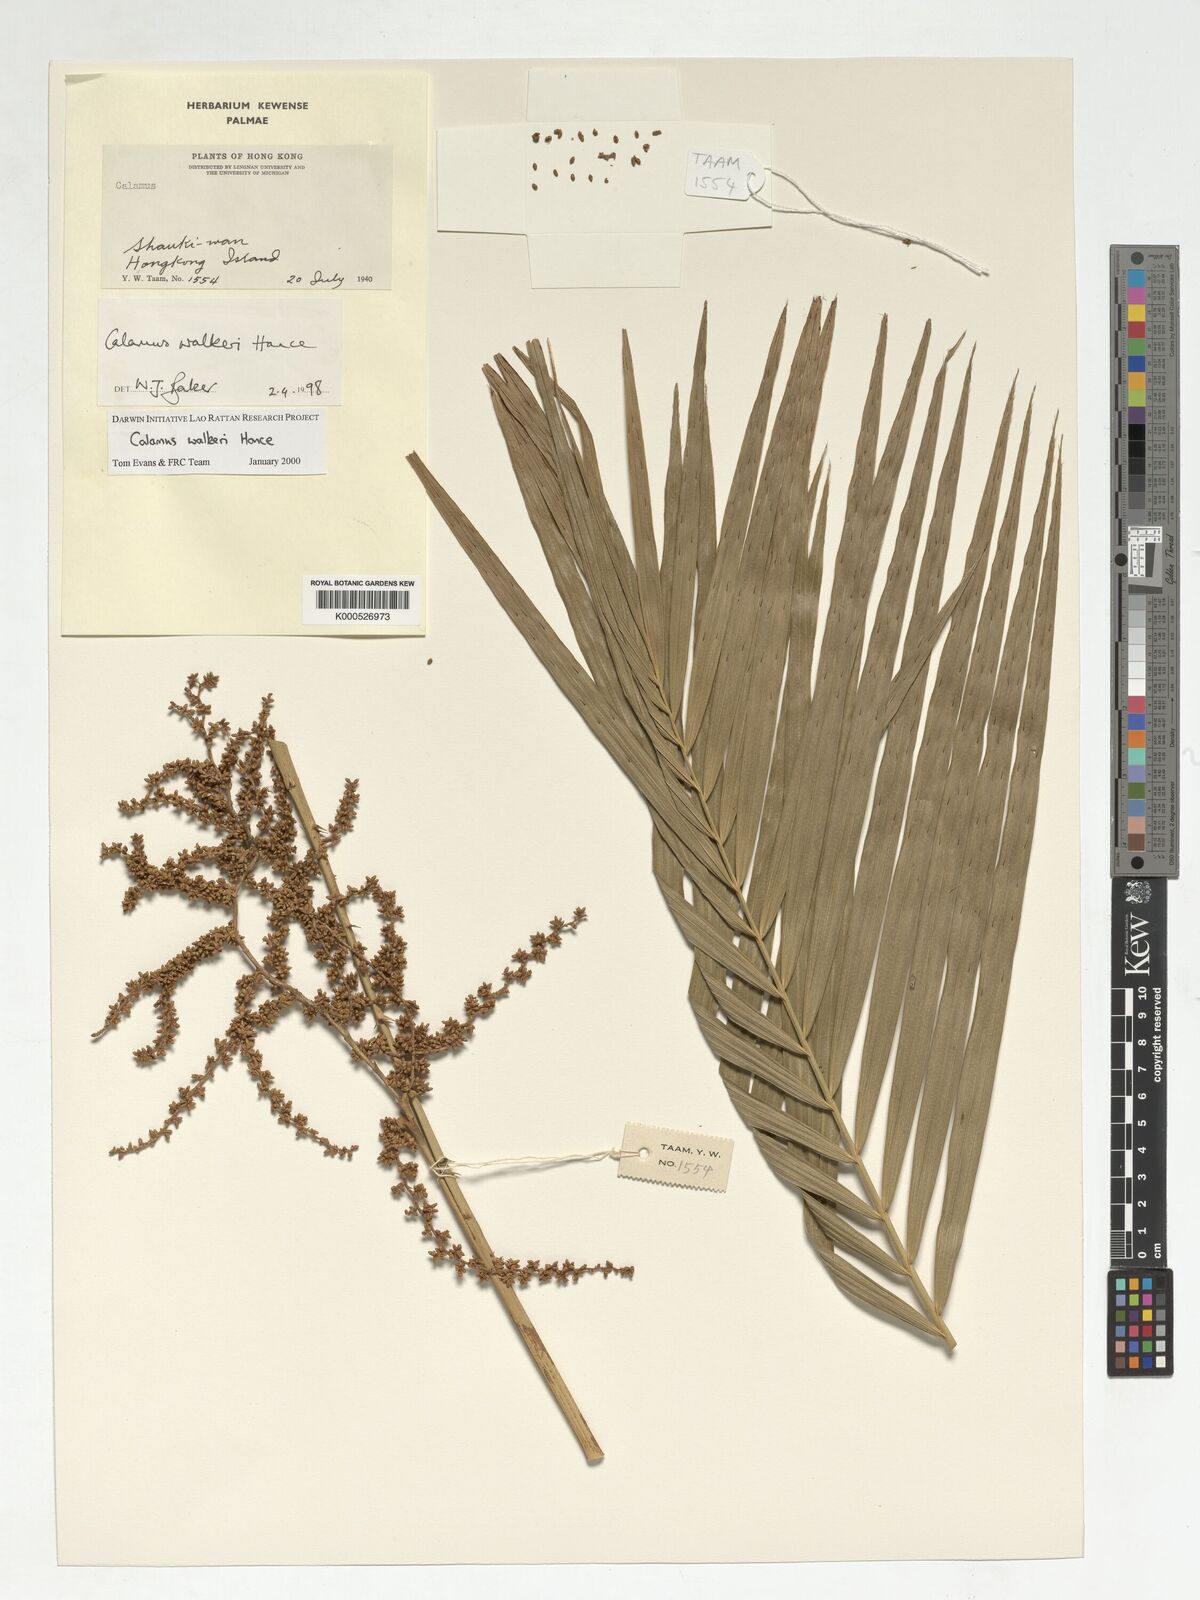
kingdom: Plantae
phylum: Tracheophyta
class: Liliopsida
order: Arecales
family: Arecaceae
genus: Calamus
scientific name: Calamus walkeri
